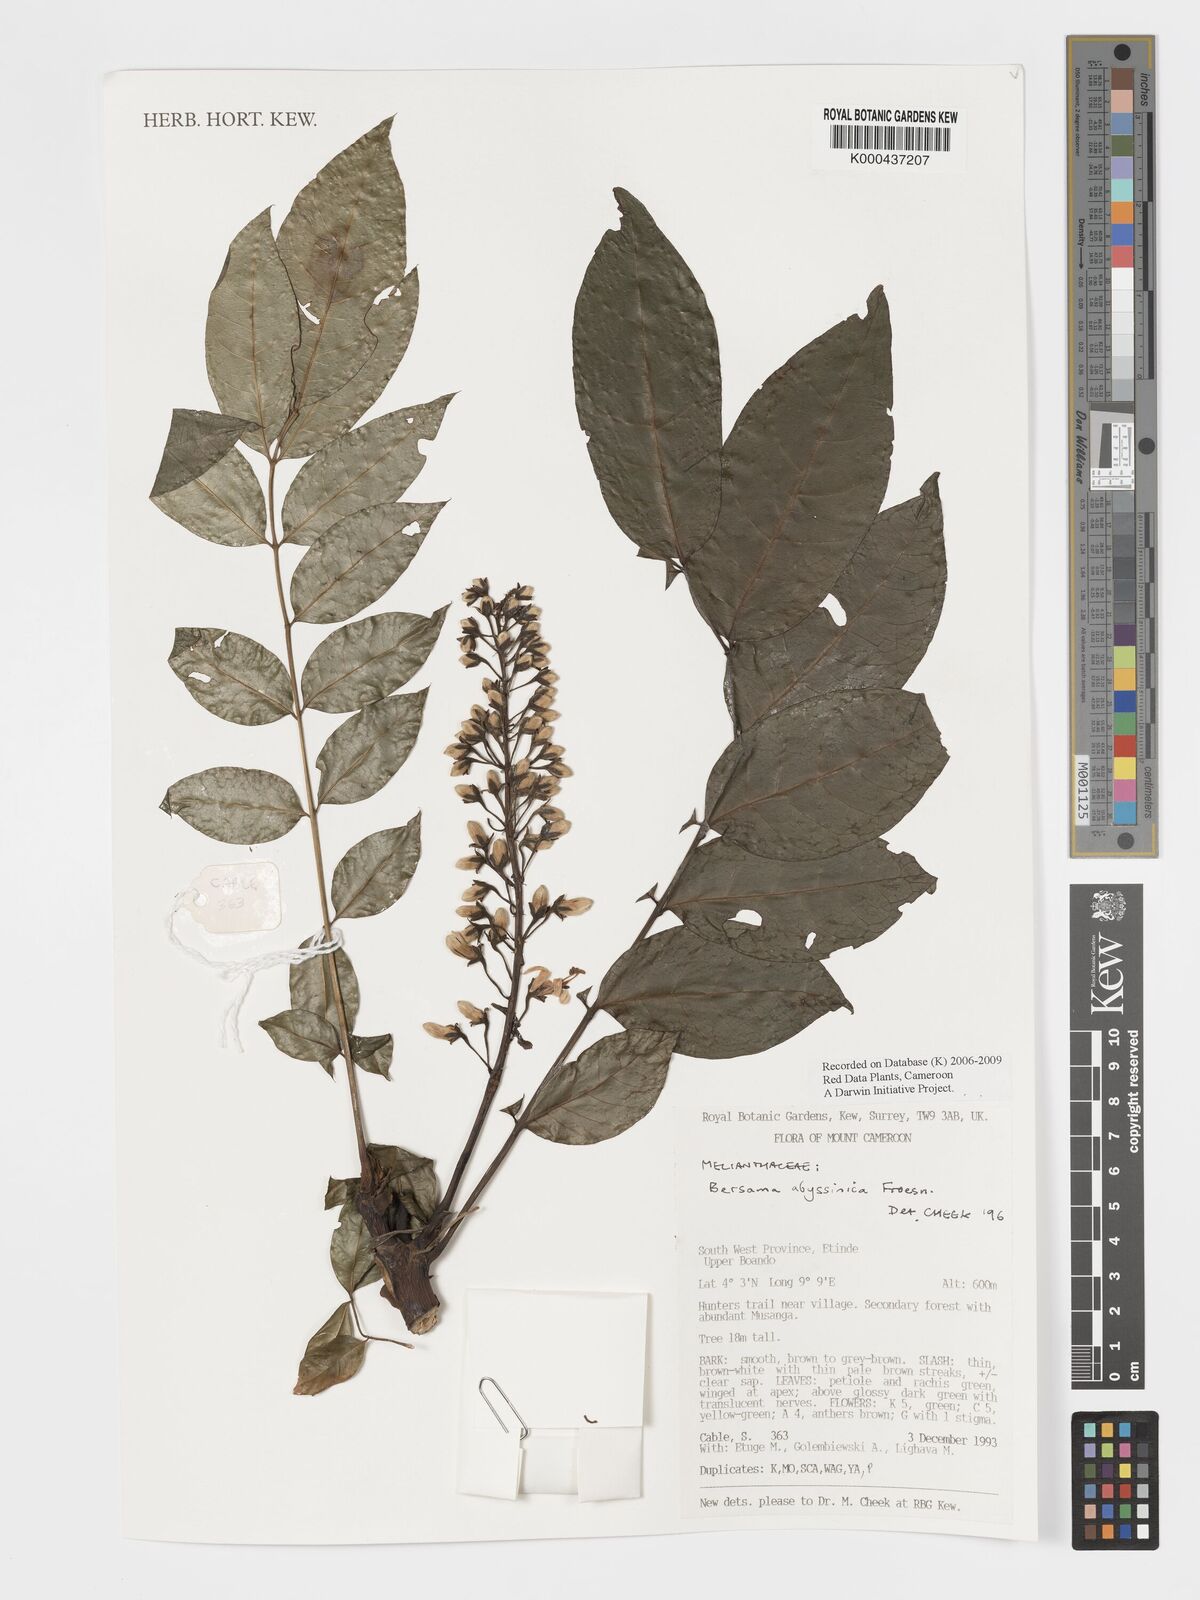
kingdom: Plantae
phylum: Tracheophyta
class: Magnoliopsida
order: Geraniales
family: Melianthaceae
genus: Bersama
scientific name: Bersama abyssinica
